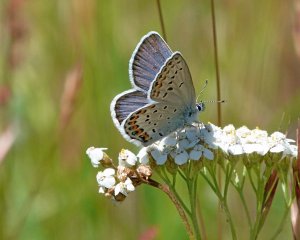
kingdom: Animalia
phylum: Arthropoda
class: Insecta
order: Lepidoptera
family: Lycaenidae
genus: Lycaeides
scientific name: Lycaeides melissa
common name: Melissa Blue
